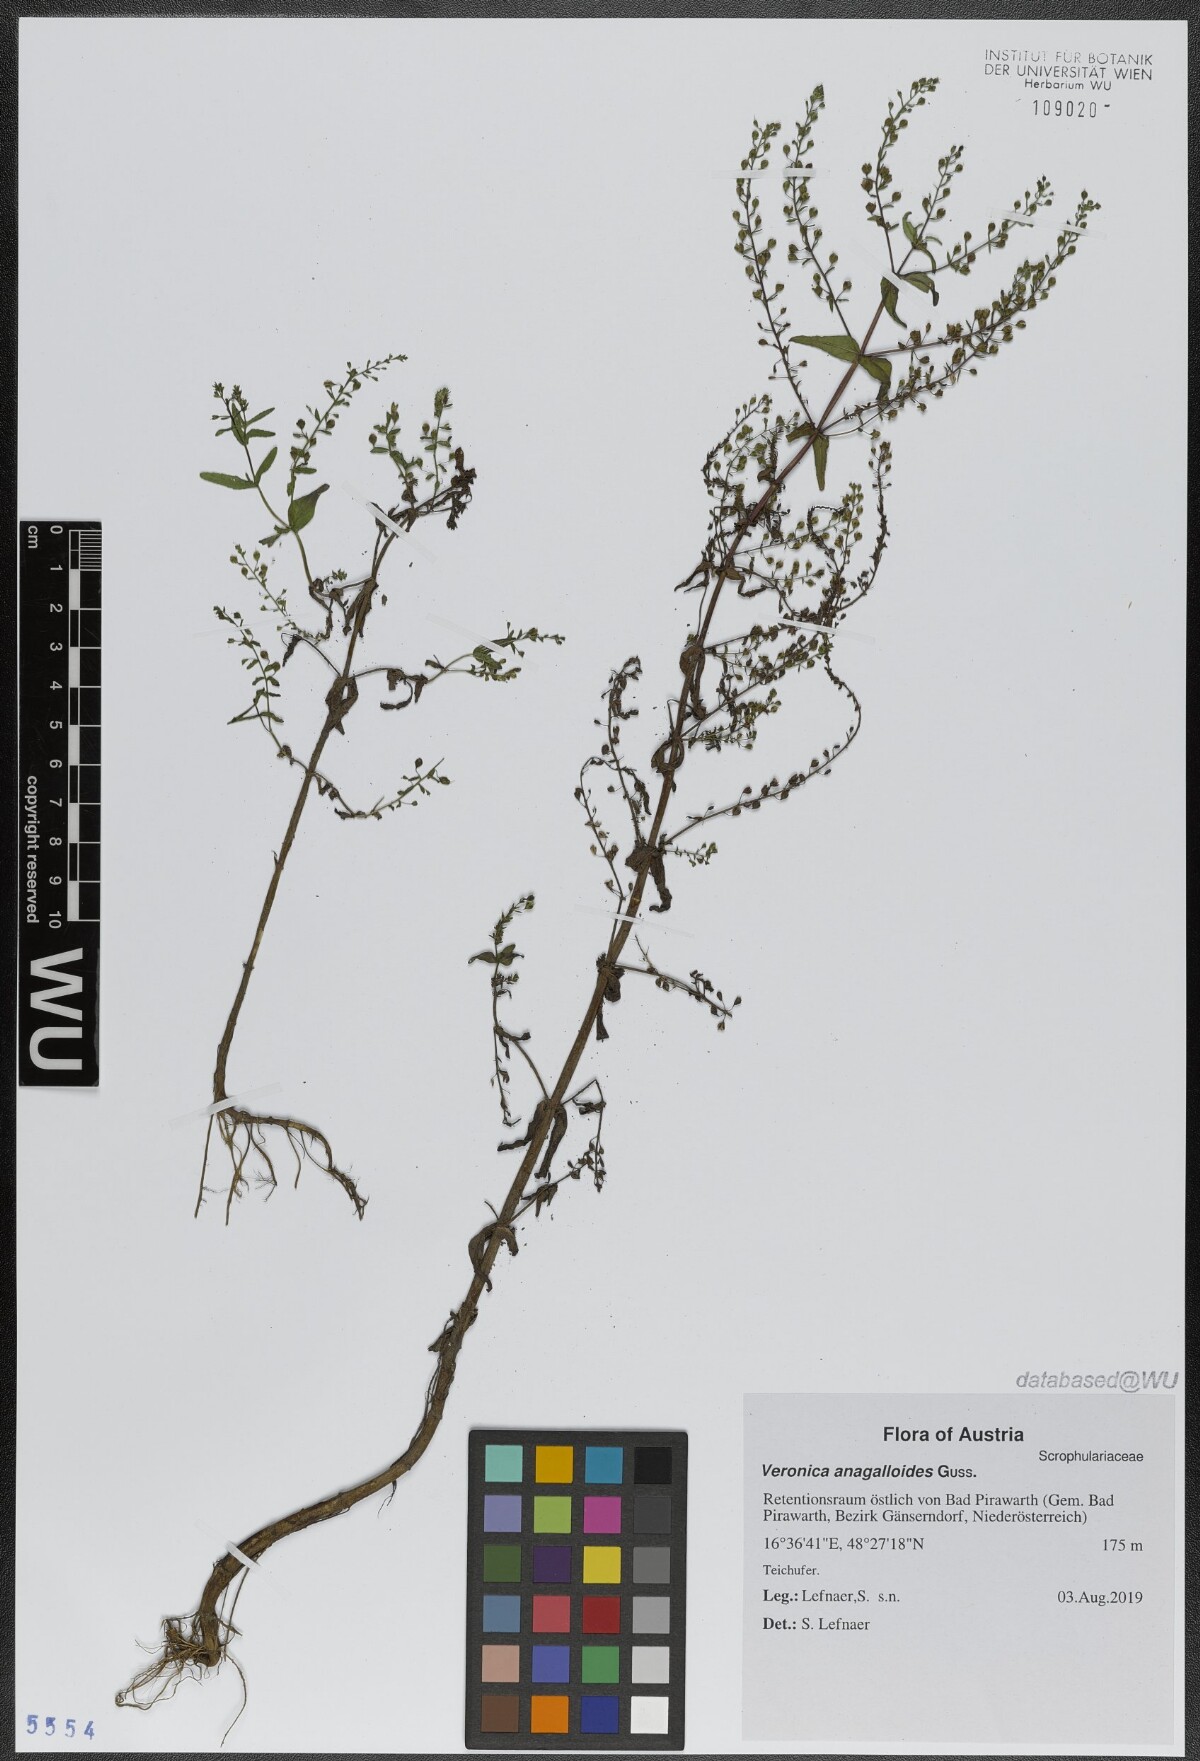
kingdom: Plantae
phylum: Tracheophyta
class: Magnoliopsida
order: Lamiales
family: Plantaginaceae
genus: Veronica
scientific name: Veronica anagalloides
